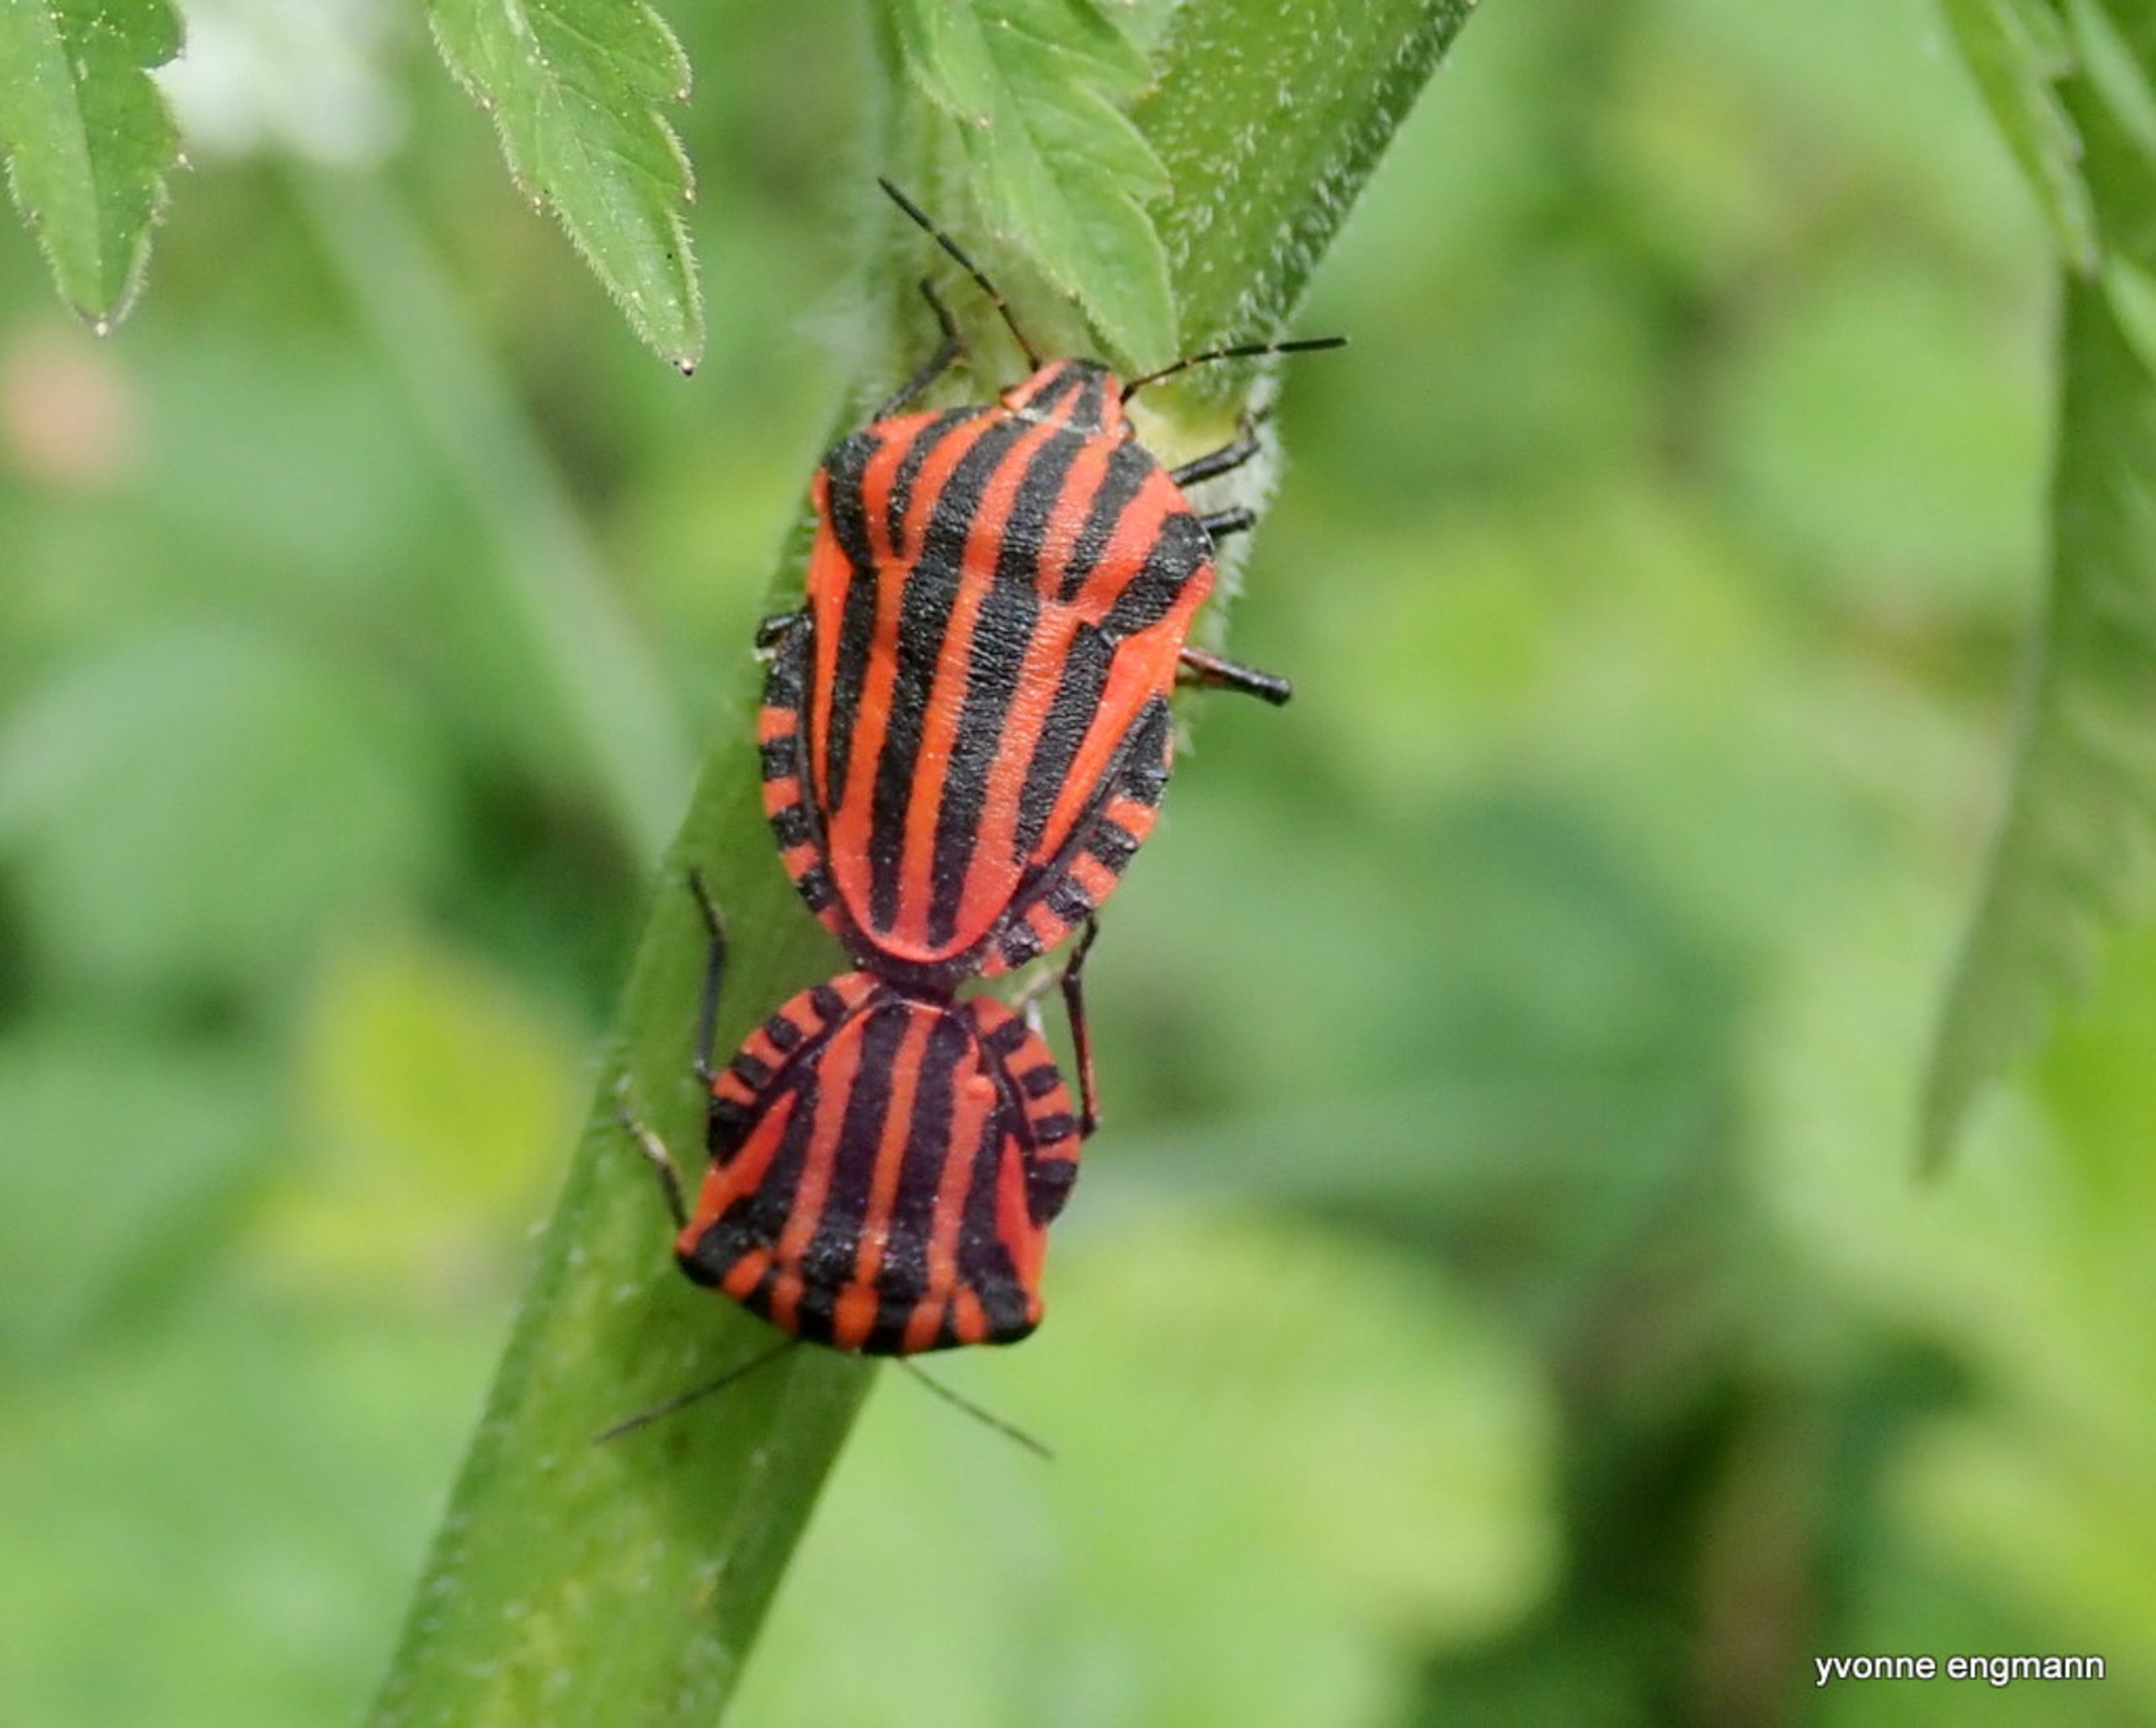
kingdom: Animalia
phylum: Arthropoda
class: Insecta
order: Hemiptera
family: Pentatomidae
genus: Graphosoma
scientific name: Graphosoma italicum
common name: Stribetæge
